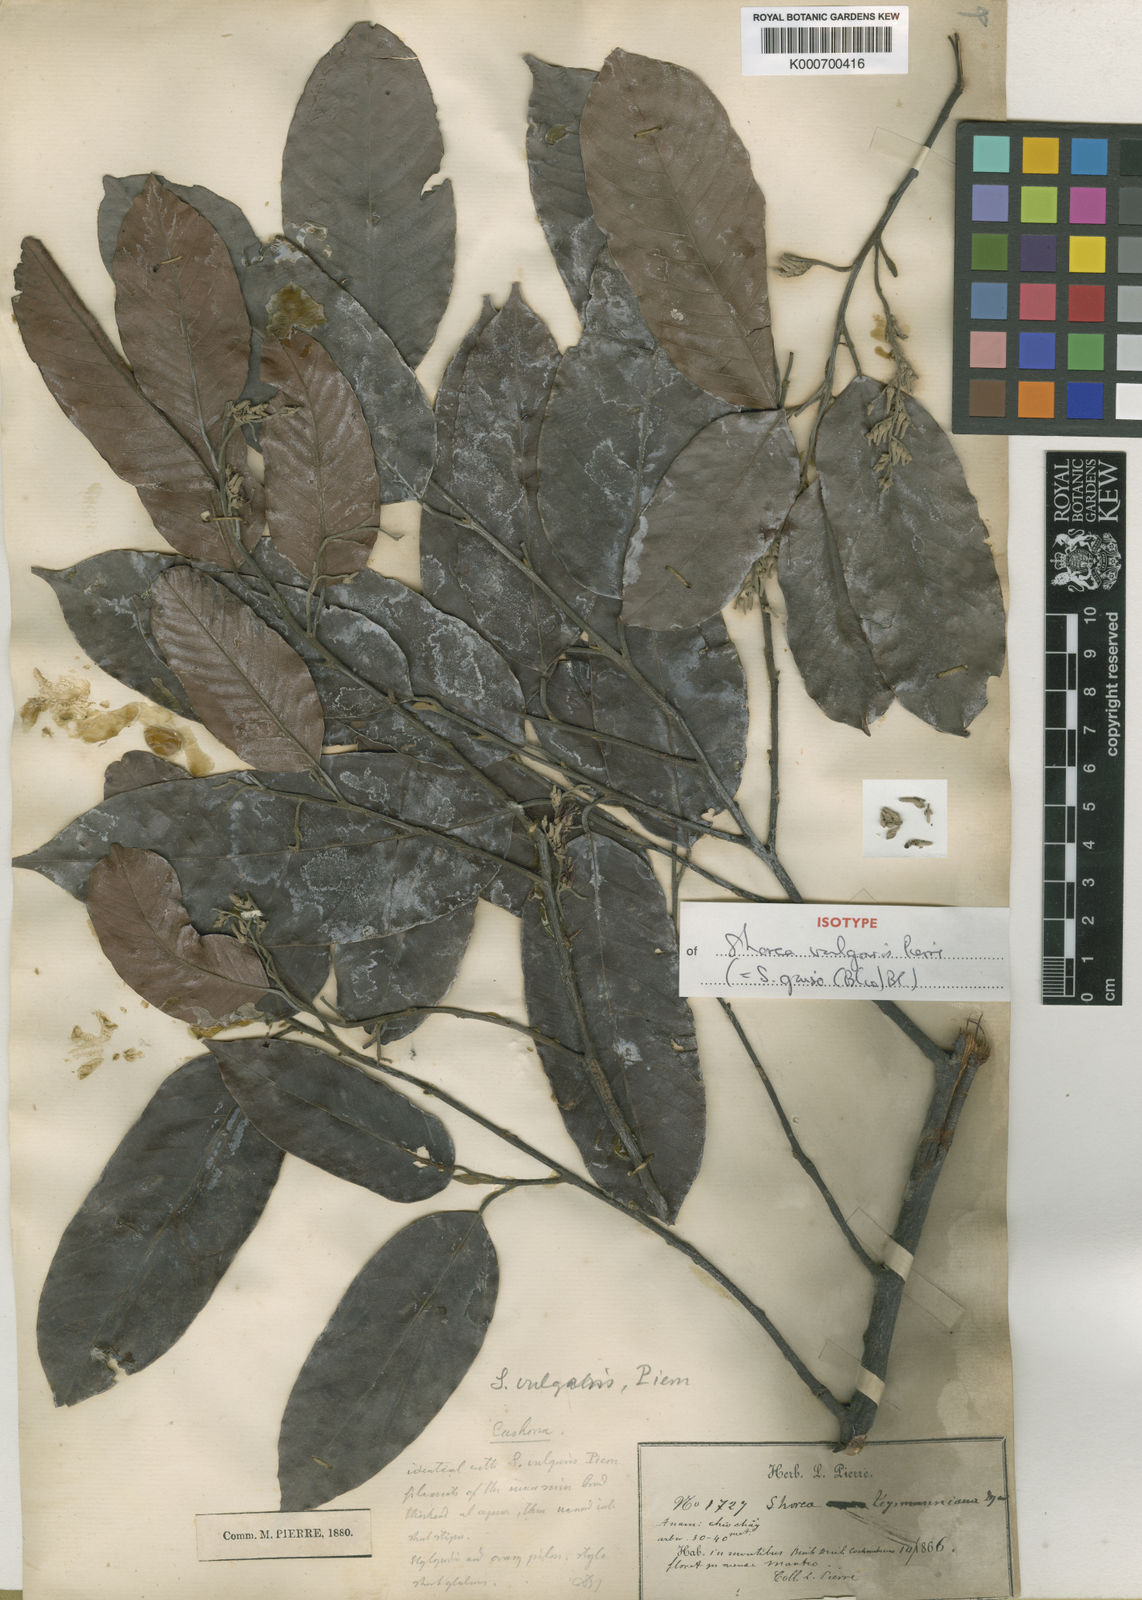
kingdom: Plantae
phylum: Tracheophyta
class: Magnoliopsida
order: Malvales
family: Dipterocarpaceae
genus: Shorea
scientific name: Shorea guiso
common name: Red balau
